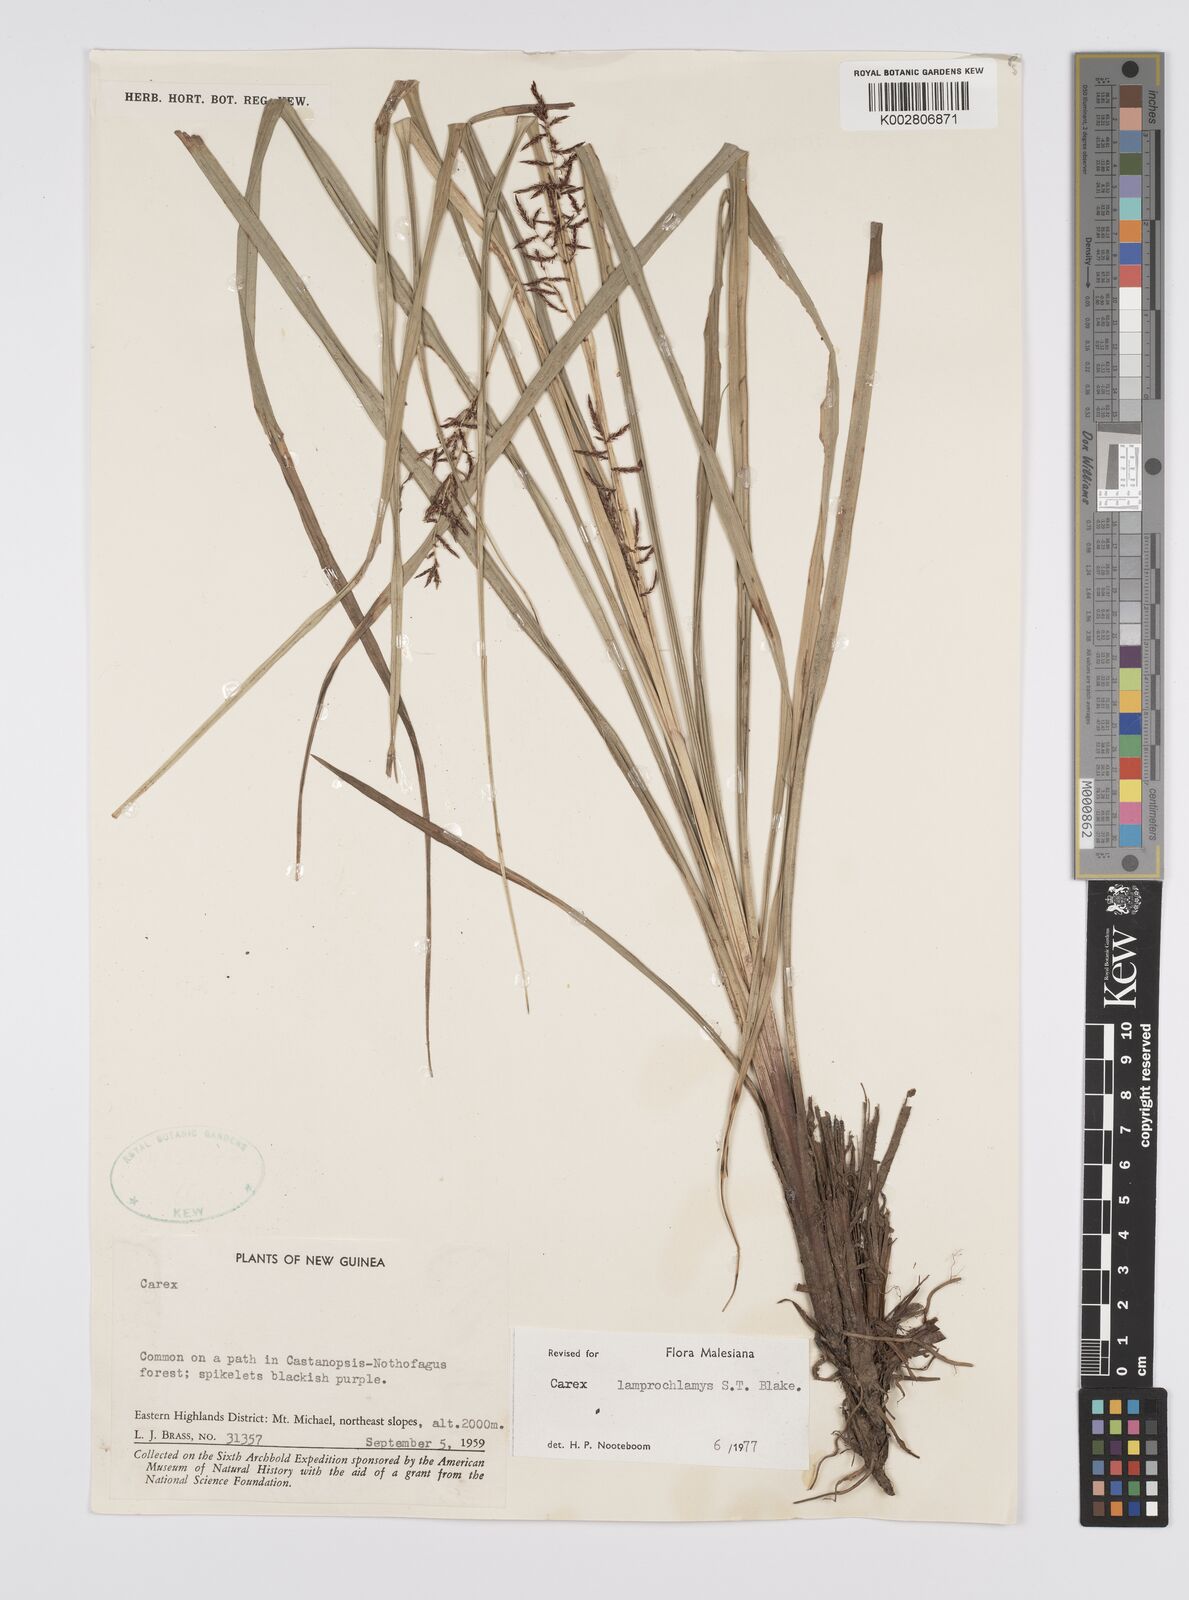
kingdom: Plantae
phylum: Tracheophyta
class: Liliopsida
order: Poales
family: Cyperaceae
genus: Carex
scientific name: Carex lamprochlamys
